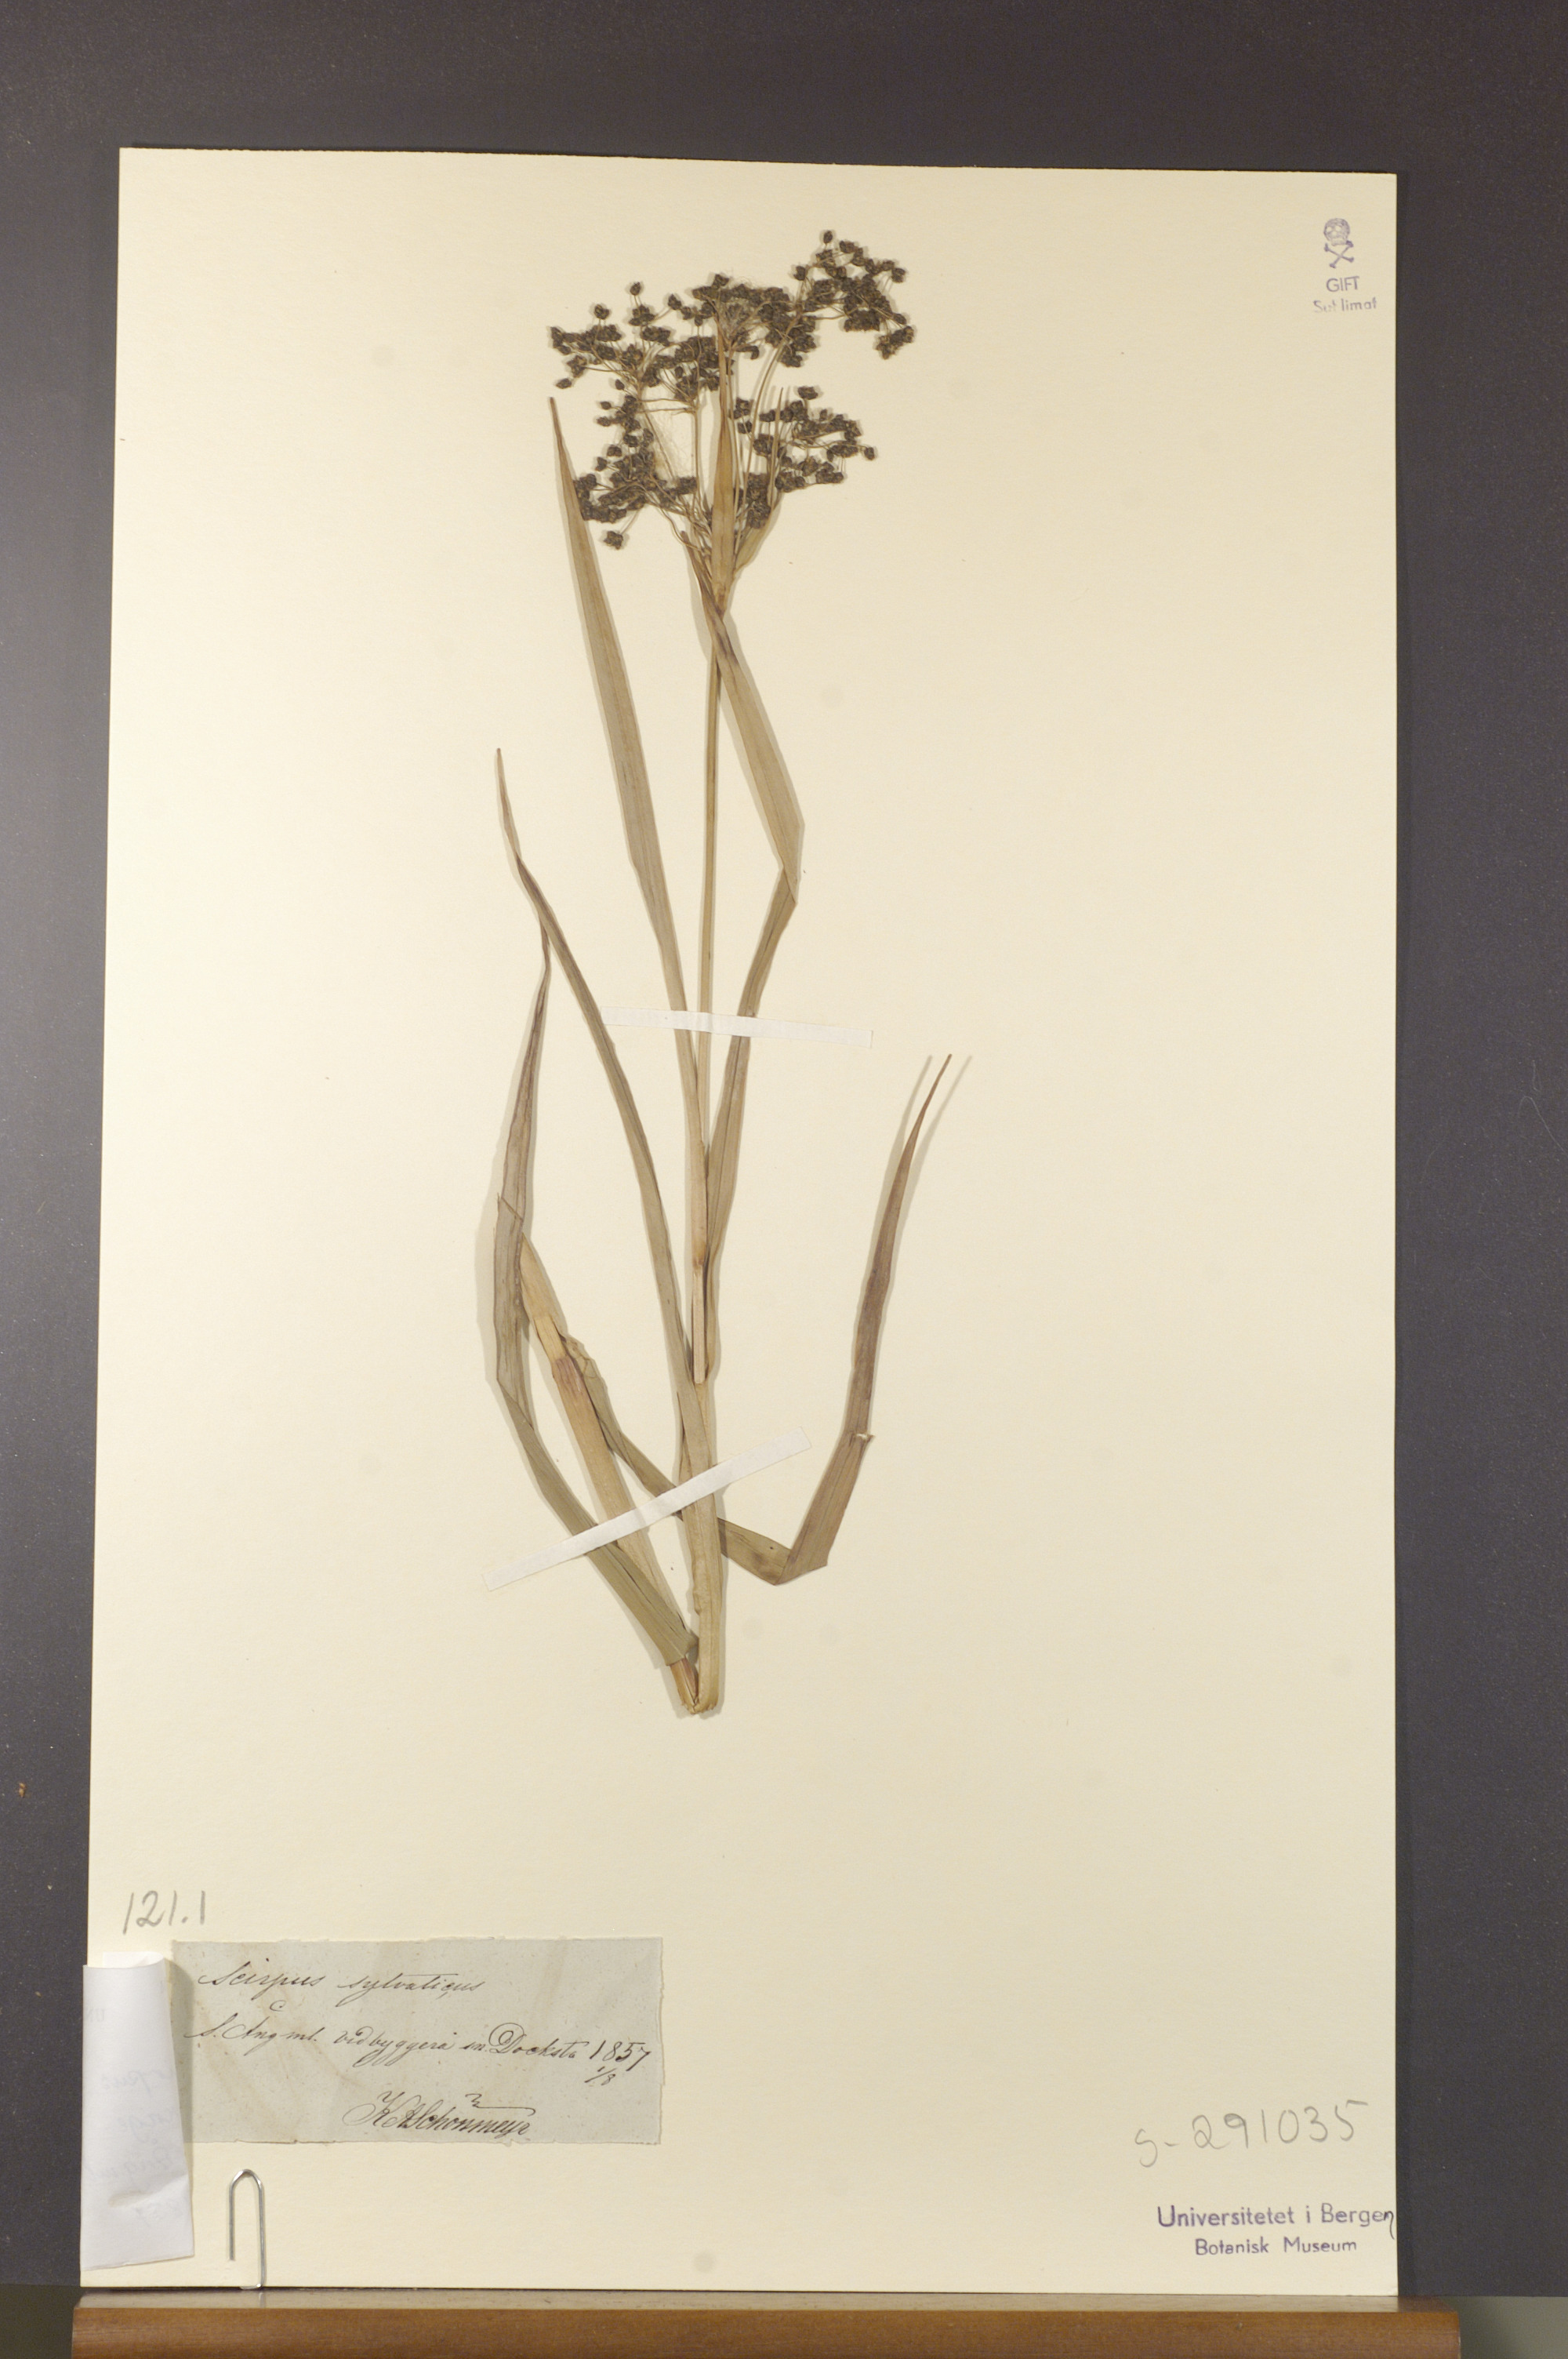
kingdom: Plantae
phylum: Tracheophyta
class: Liliopsida
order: Poales
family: Cyperaceae
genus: Scirpus
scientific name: Scirpus sylvaticus
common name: Wood club-rush
